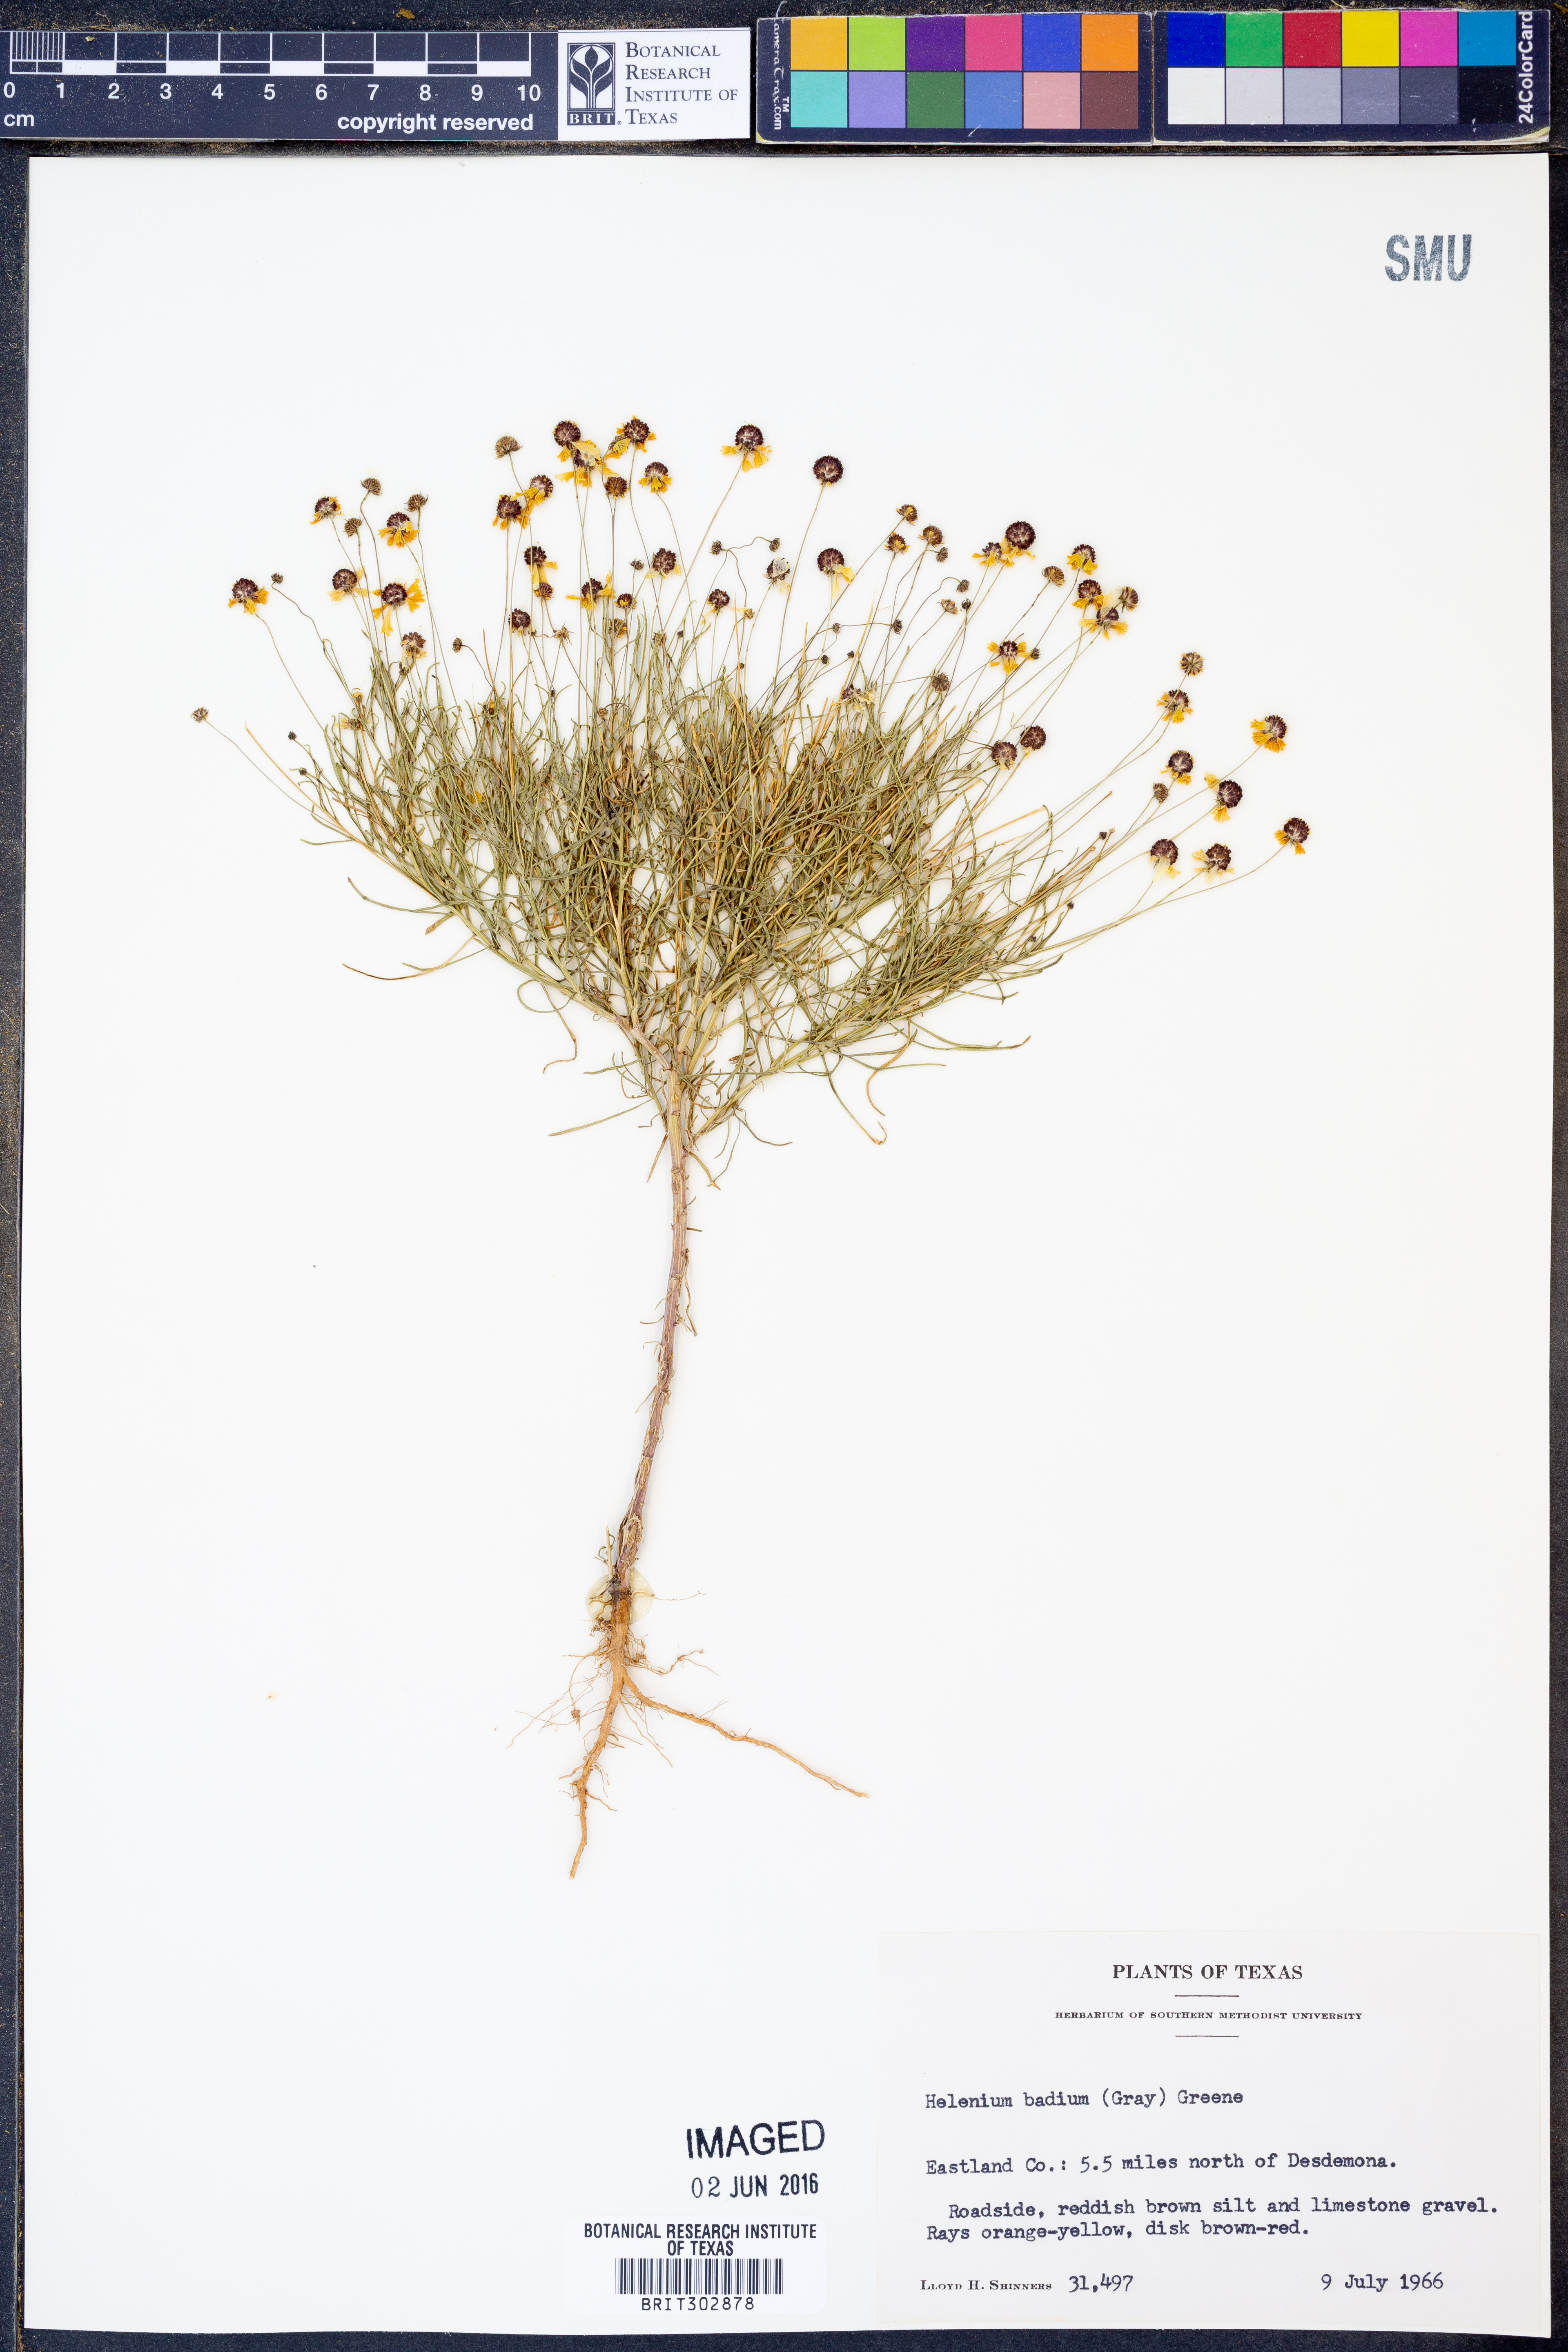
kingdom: Plantae
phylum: Tracheophyta
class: Magnoliopsida
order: Asterales
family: Asteraceae
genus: Helenium
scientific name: Helenium amarum
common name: Bitter sneezeweed
